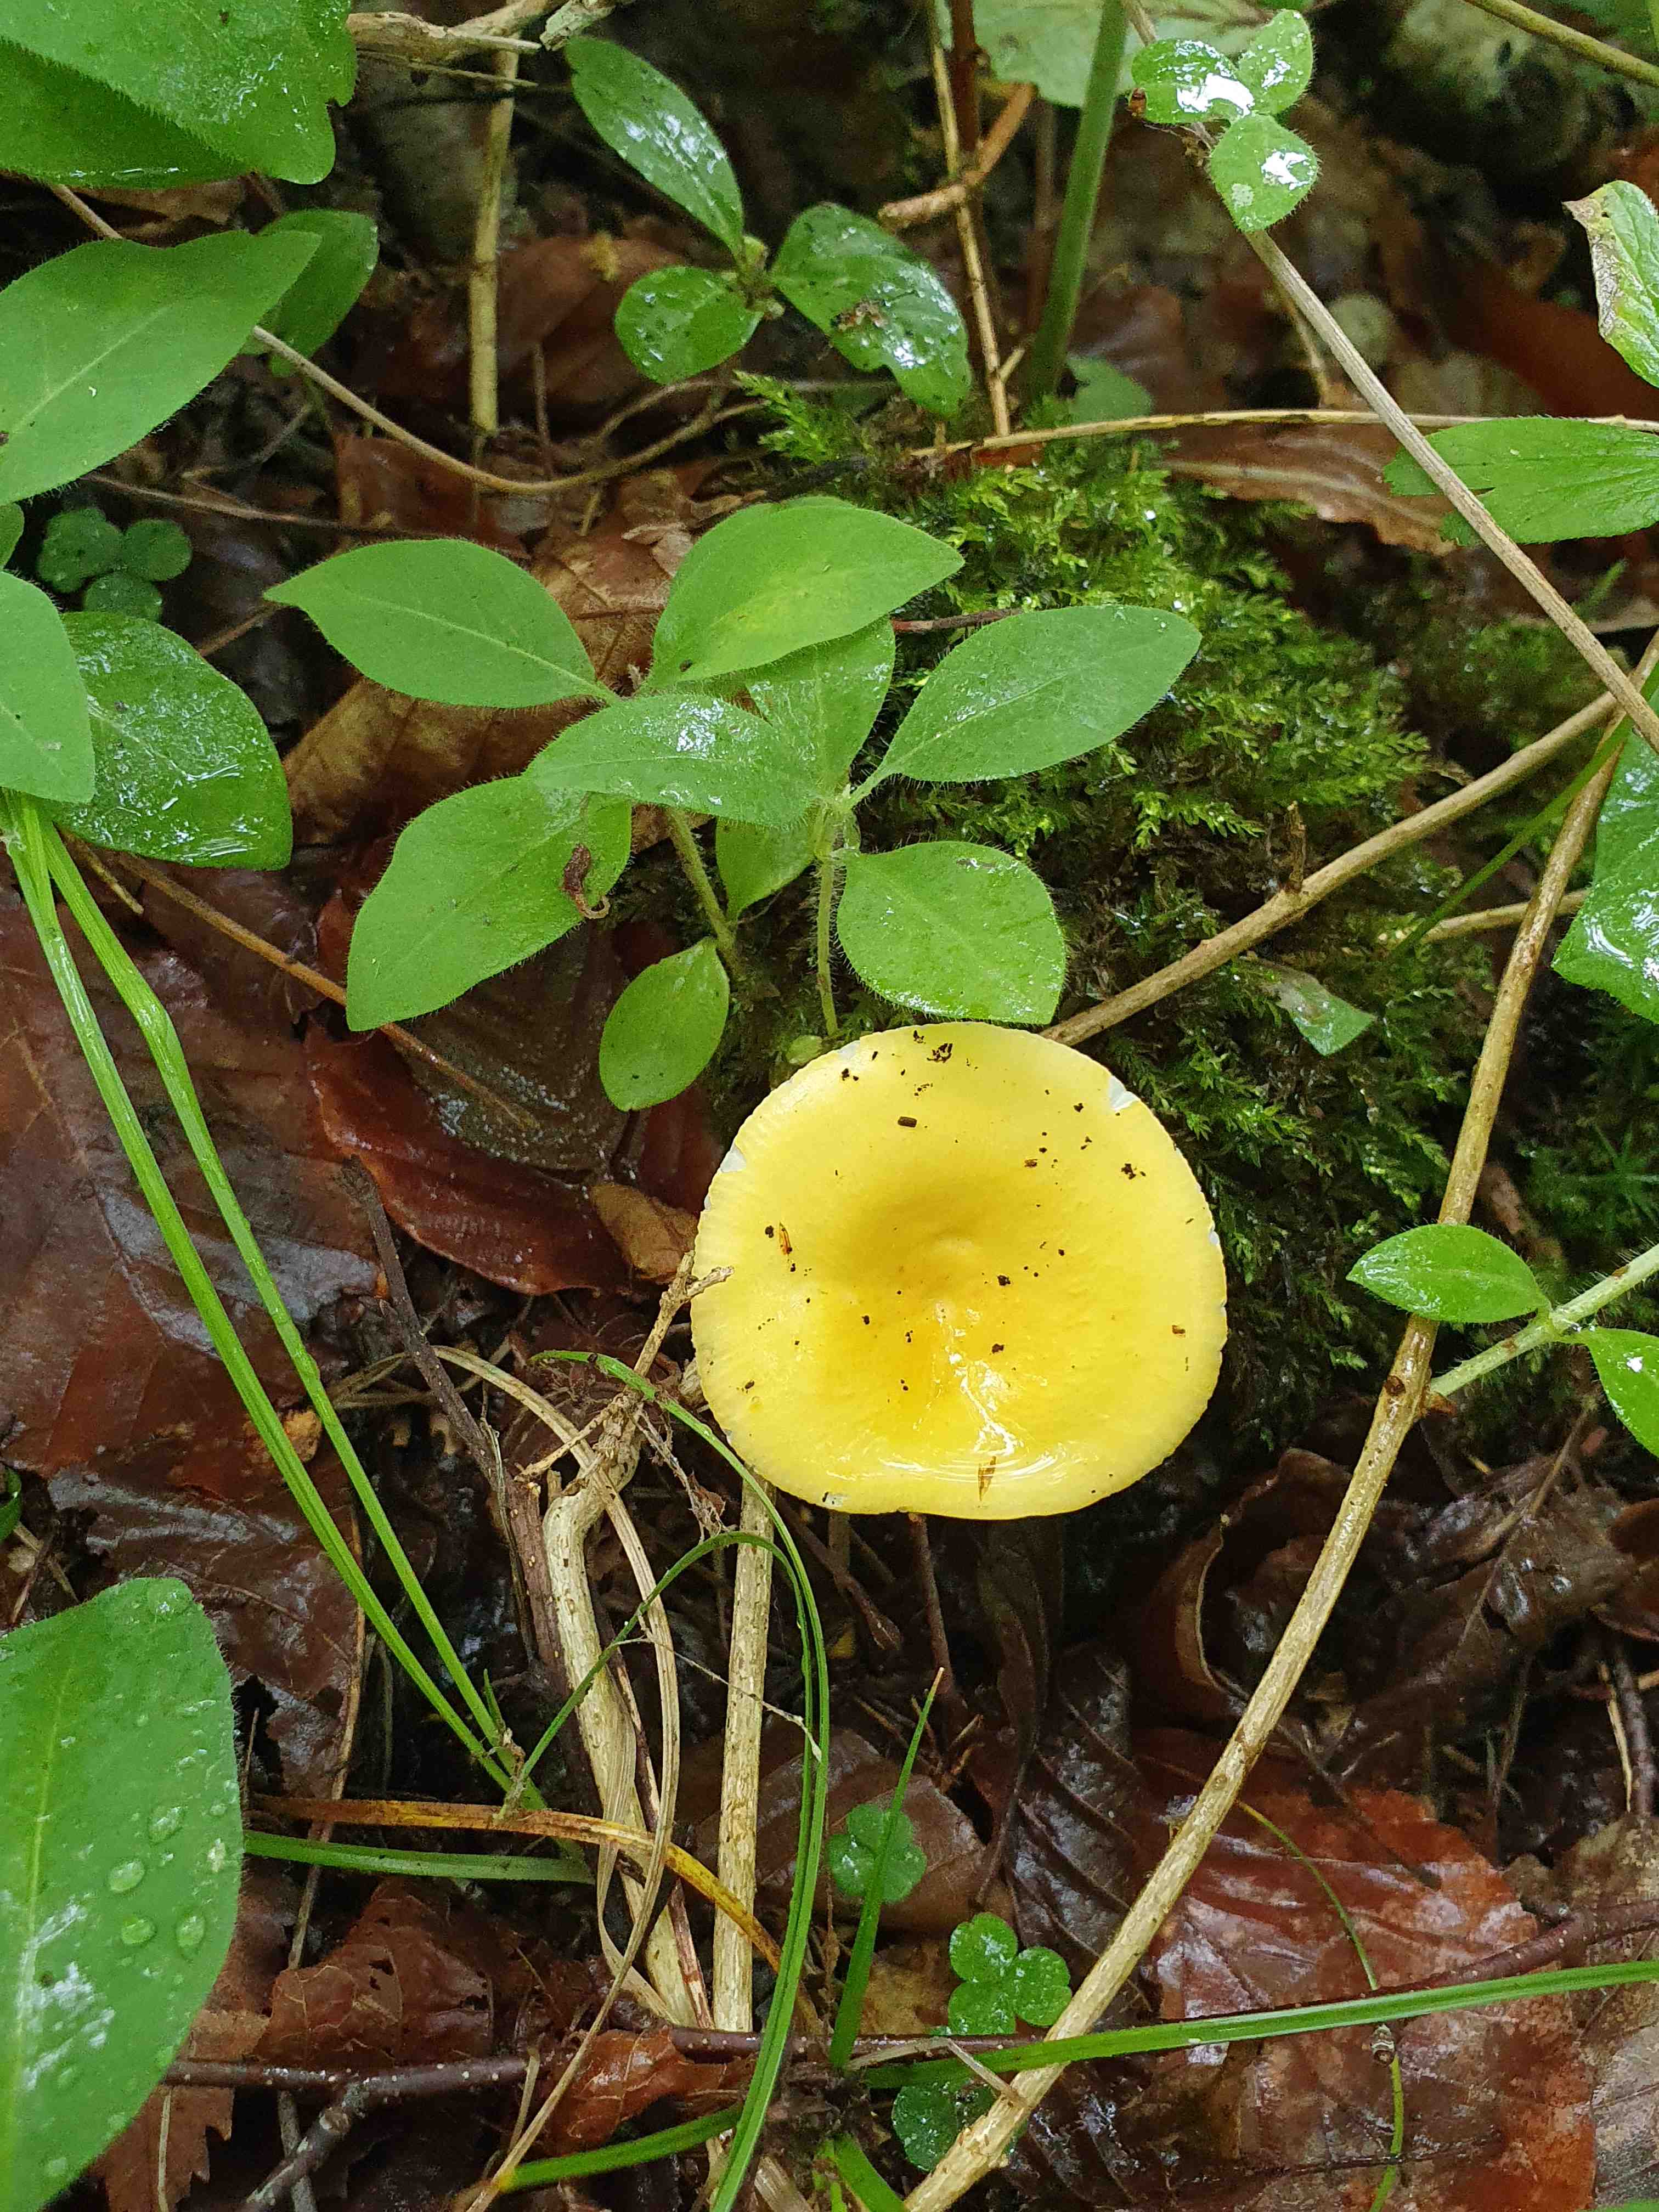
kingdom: Fungi
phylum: Basidiomycota
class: Agaricomycetes
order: Russulales
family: Russulaceae
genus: Russula
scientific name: Russula claroflava
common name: birke-skørhat
